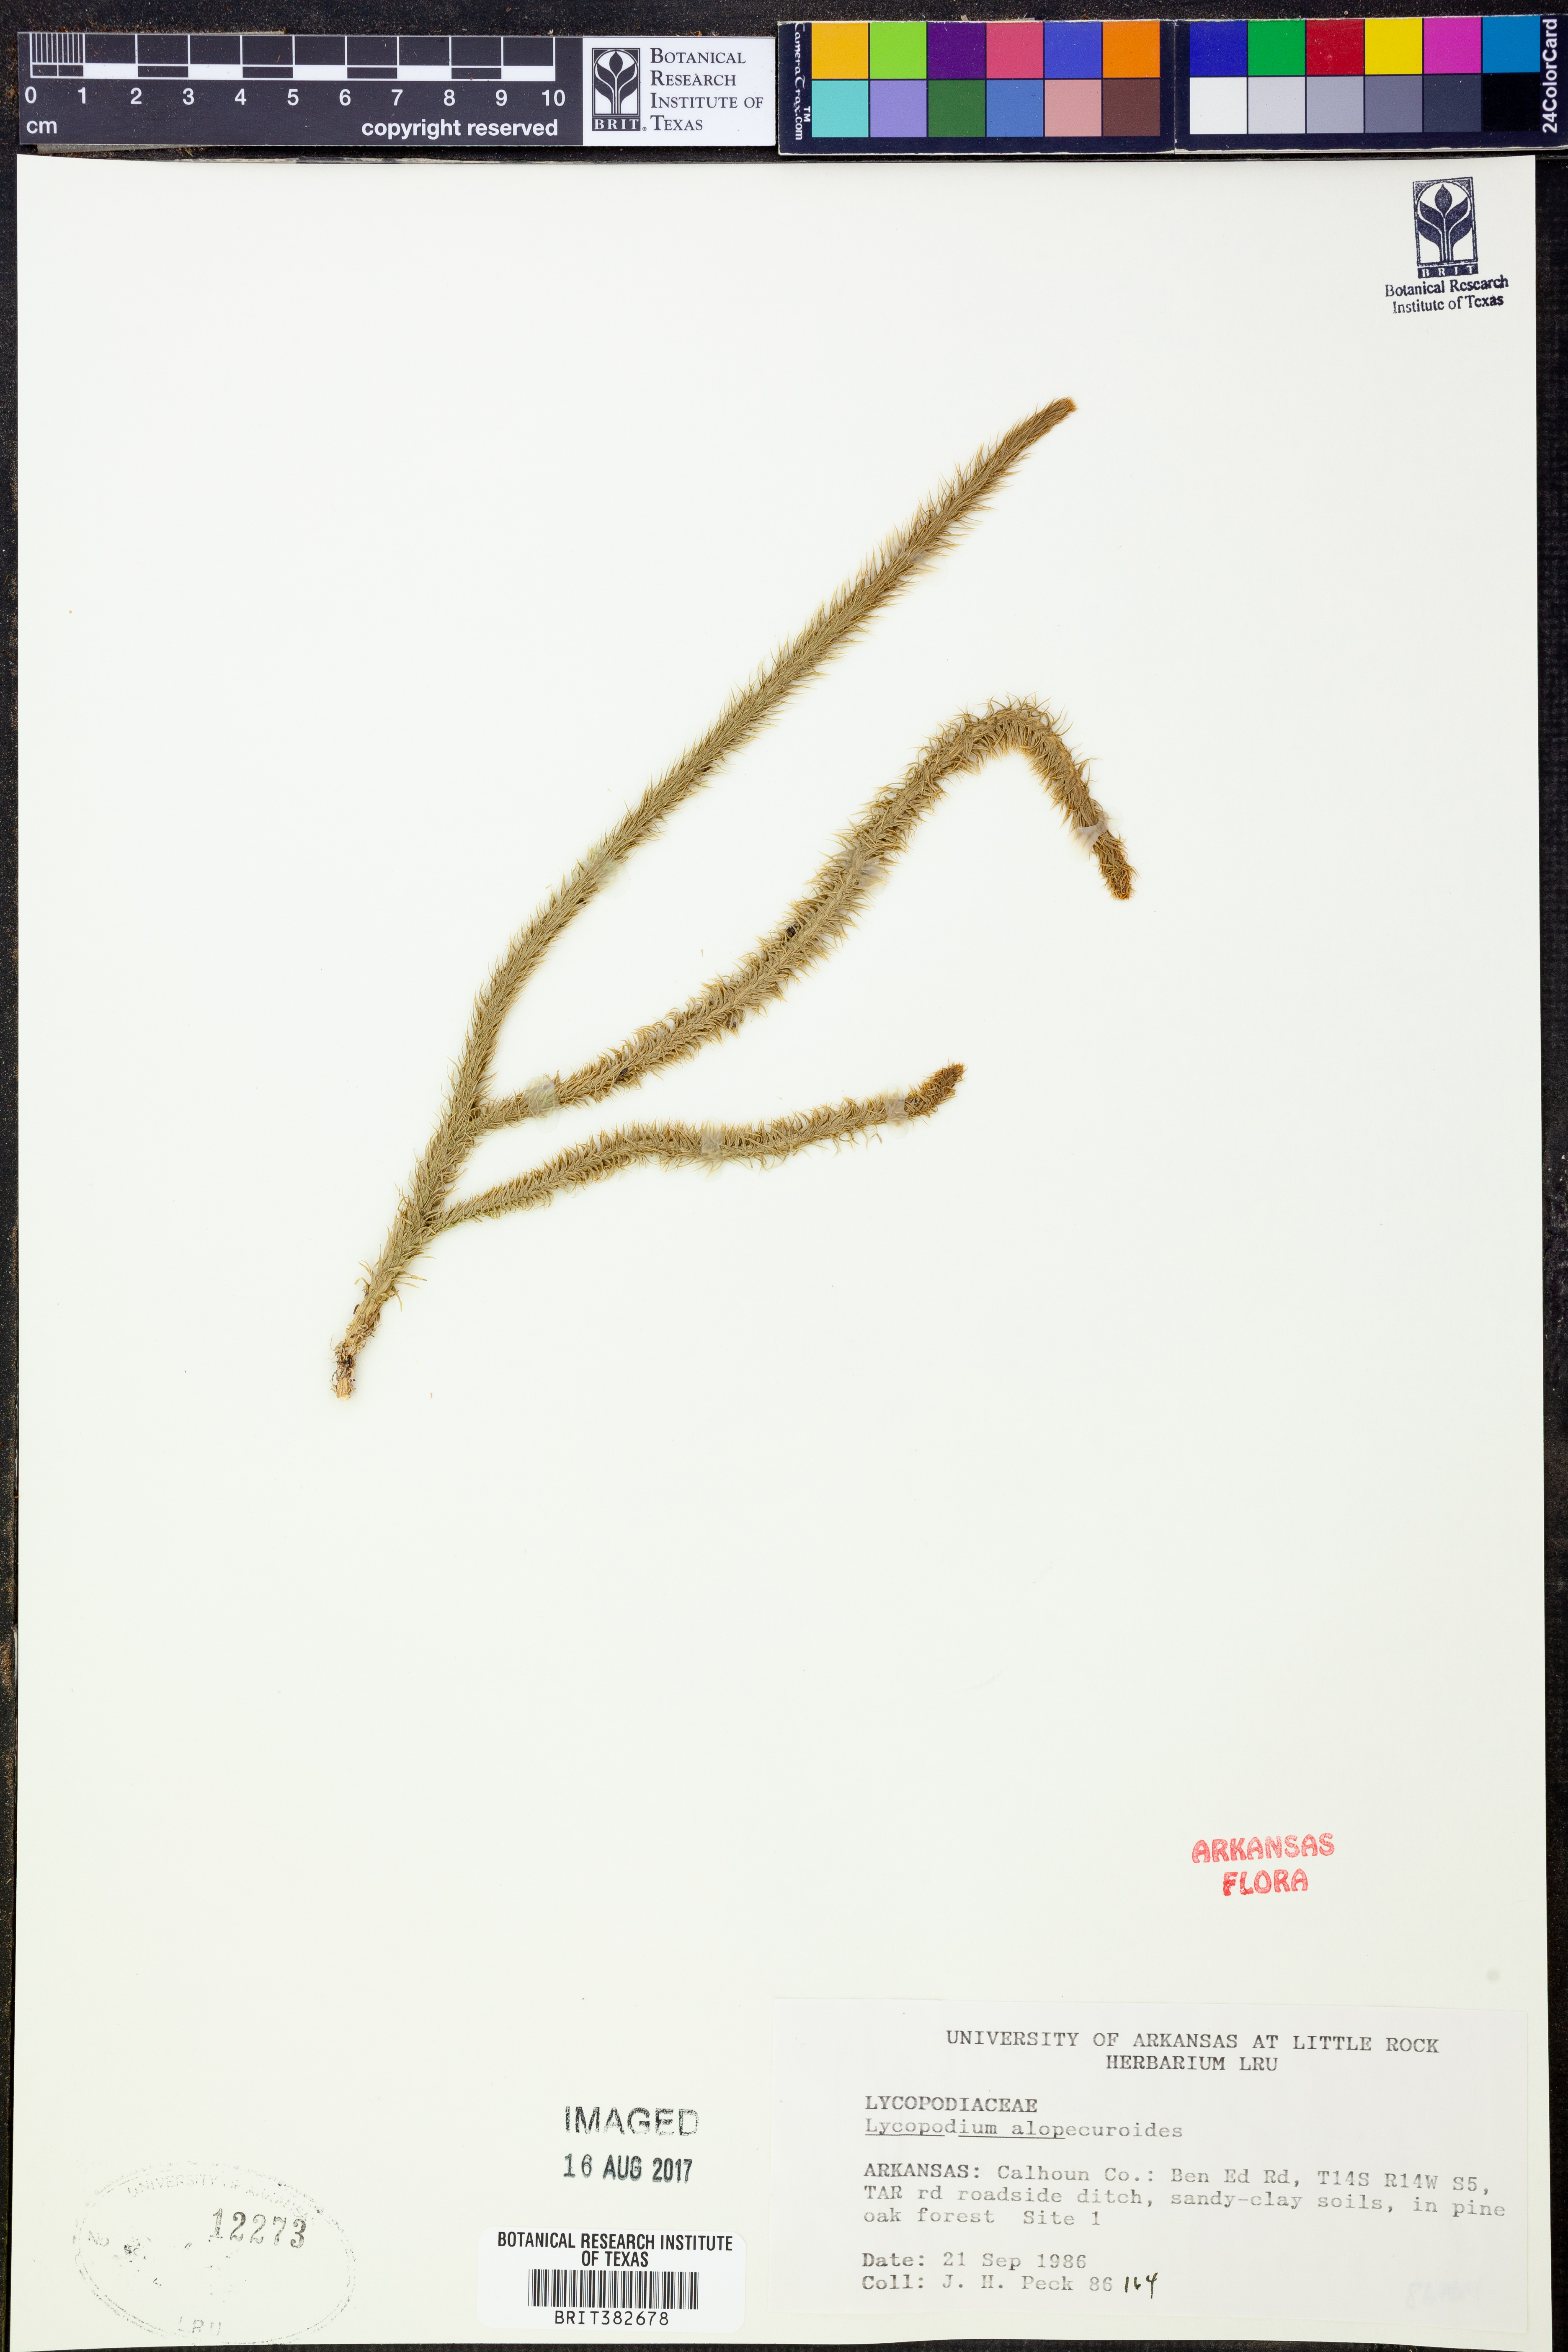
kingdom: Plantae
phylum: Tracheophyta
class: Lycopodiopsida
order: Lycopodiales
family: Lycopodiaceae
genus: Lycopodiella
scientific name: Lycopodiella alopecuroides
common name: Foxtail clubmoss
